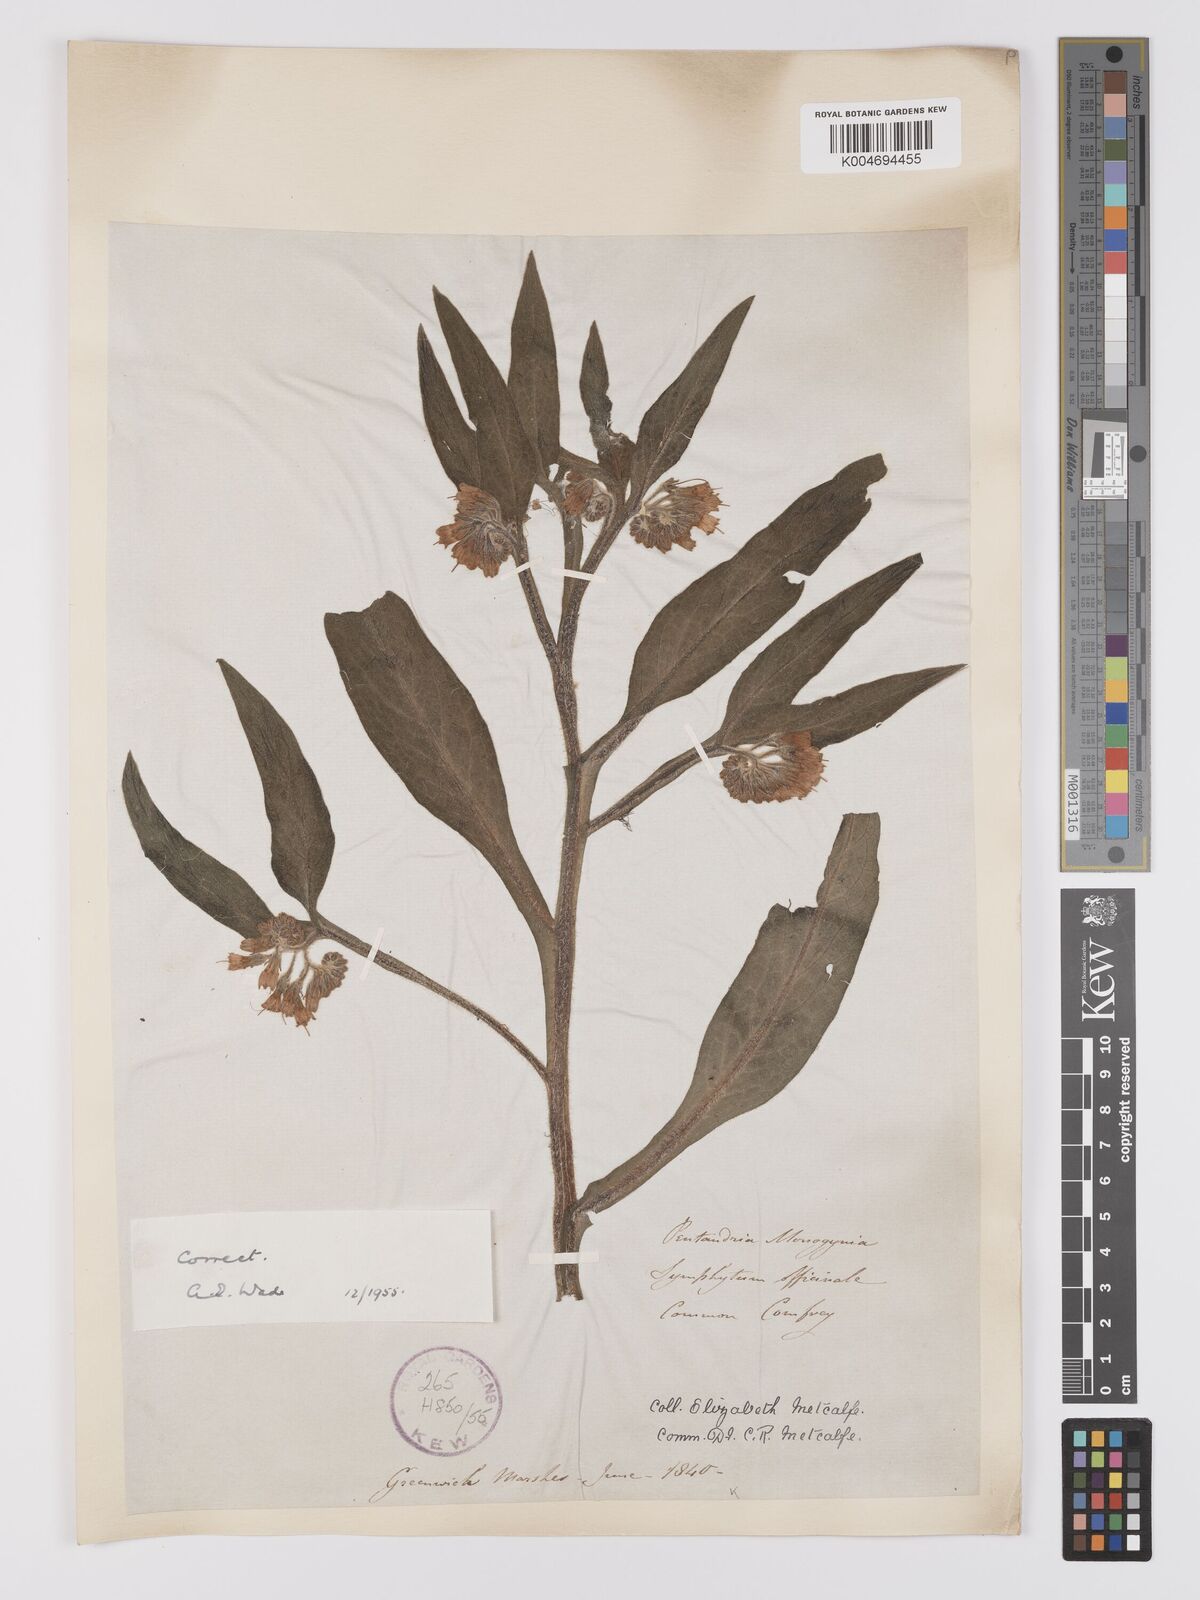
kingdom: Plantae
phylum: Tracheophyta
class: Magnoliopsida
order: Boraginales
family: Boraginaceae
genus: Symphytum
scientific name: Symphytum officinale
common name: Common comfrey
